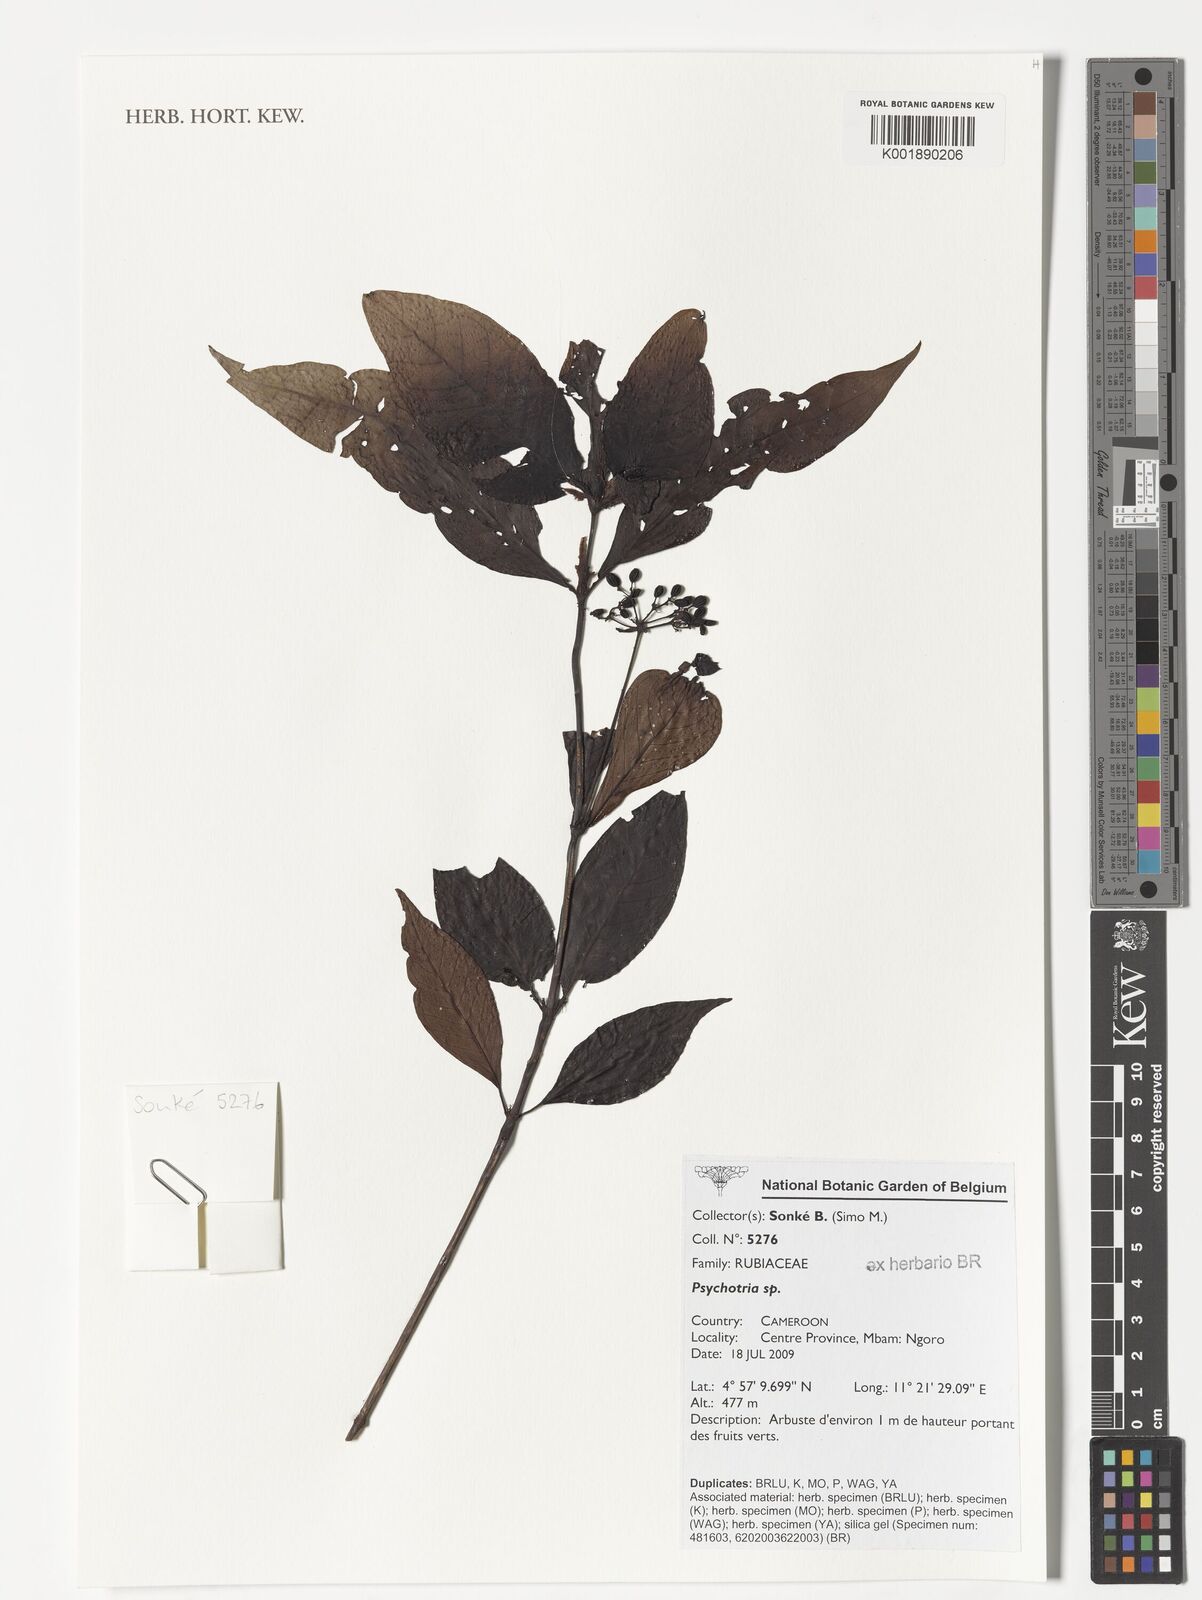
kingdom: Plantae
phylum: Tracheophyta
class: Magnoliopsida
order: Gentianales
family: Rubiaceae
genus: Psychotria
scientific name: Psychotria
